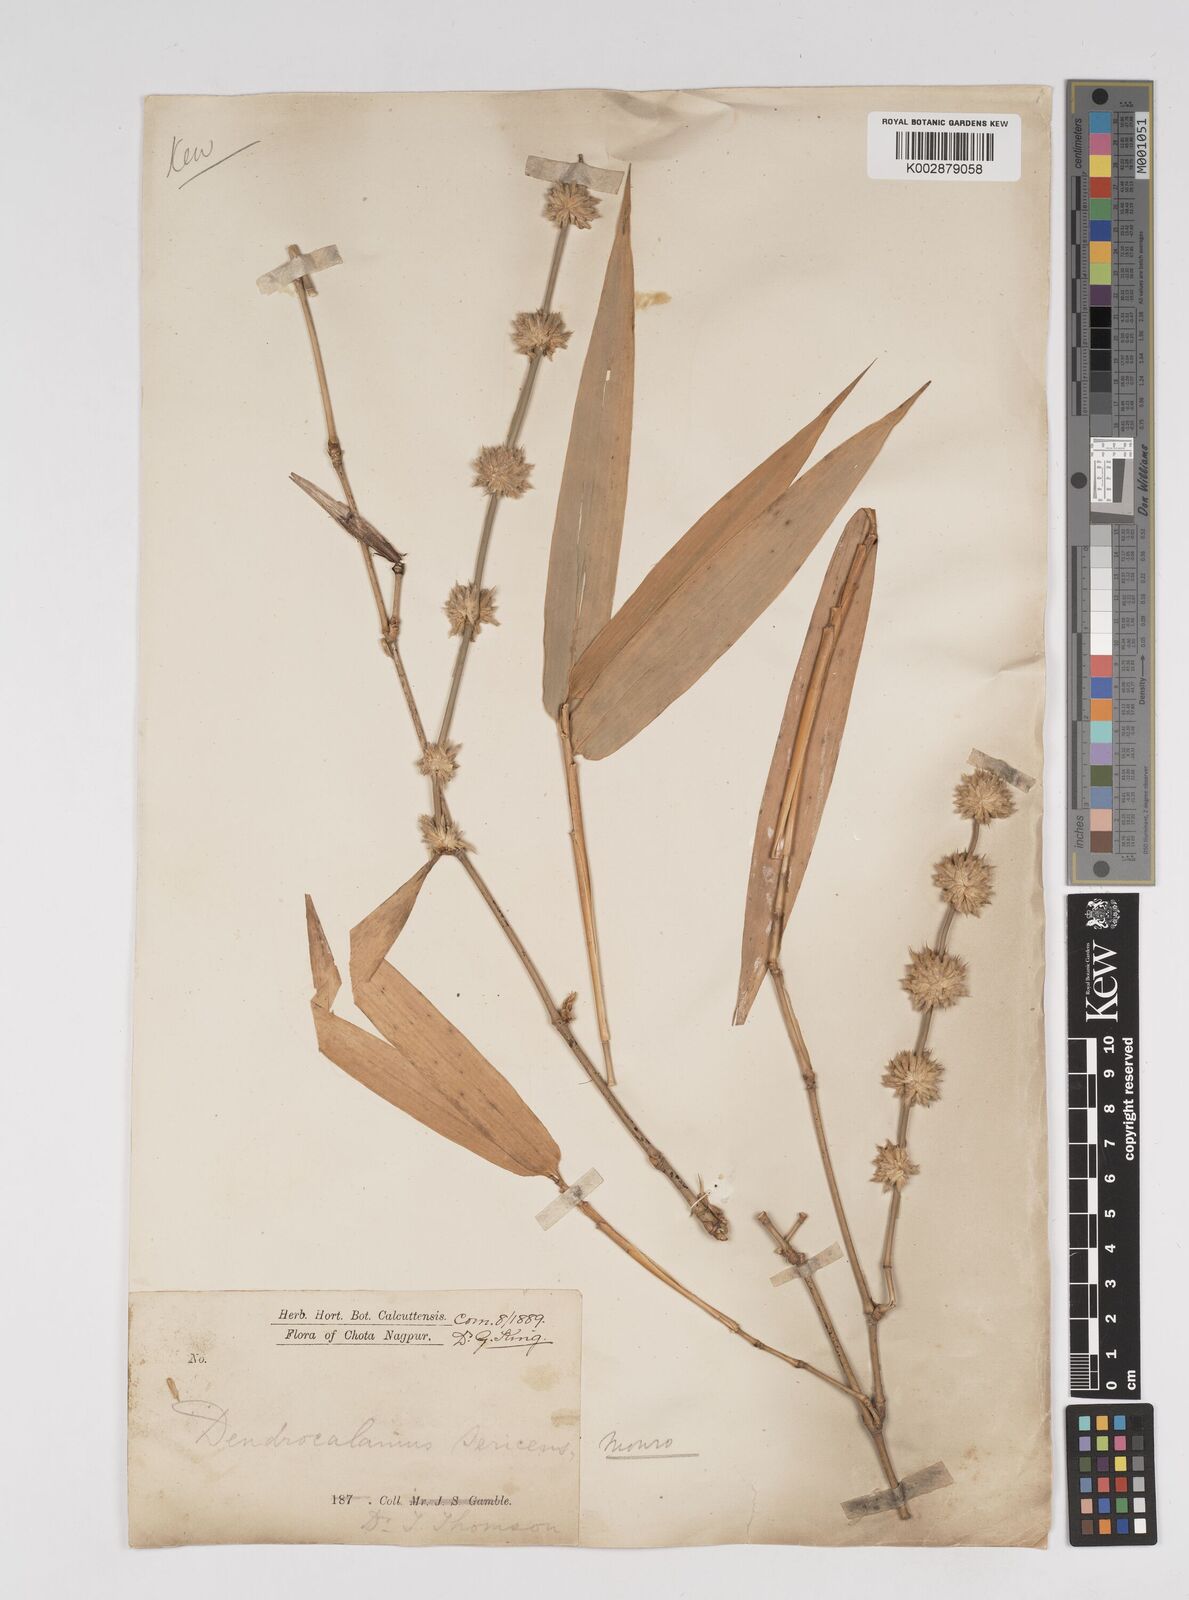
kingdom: Plantae
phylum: Tracheophyta
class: Liliopsida
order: Poales
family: Poaceae
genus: Dendrocalamus
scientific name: Dendrocalamus sericeus
